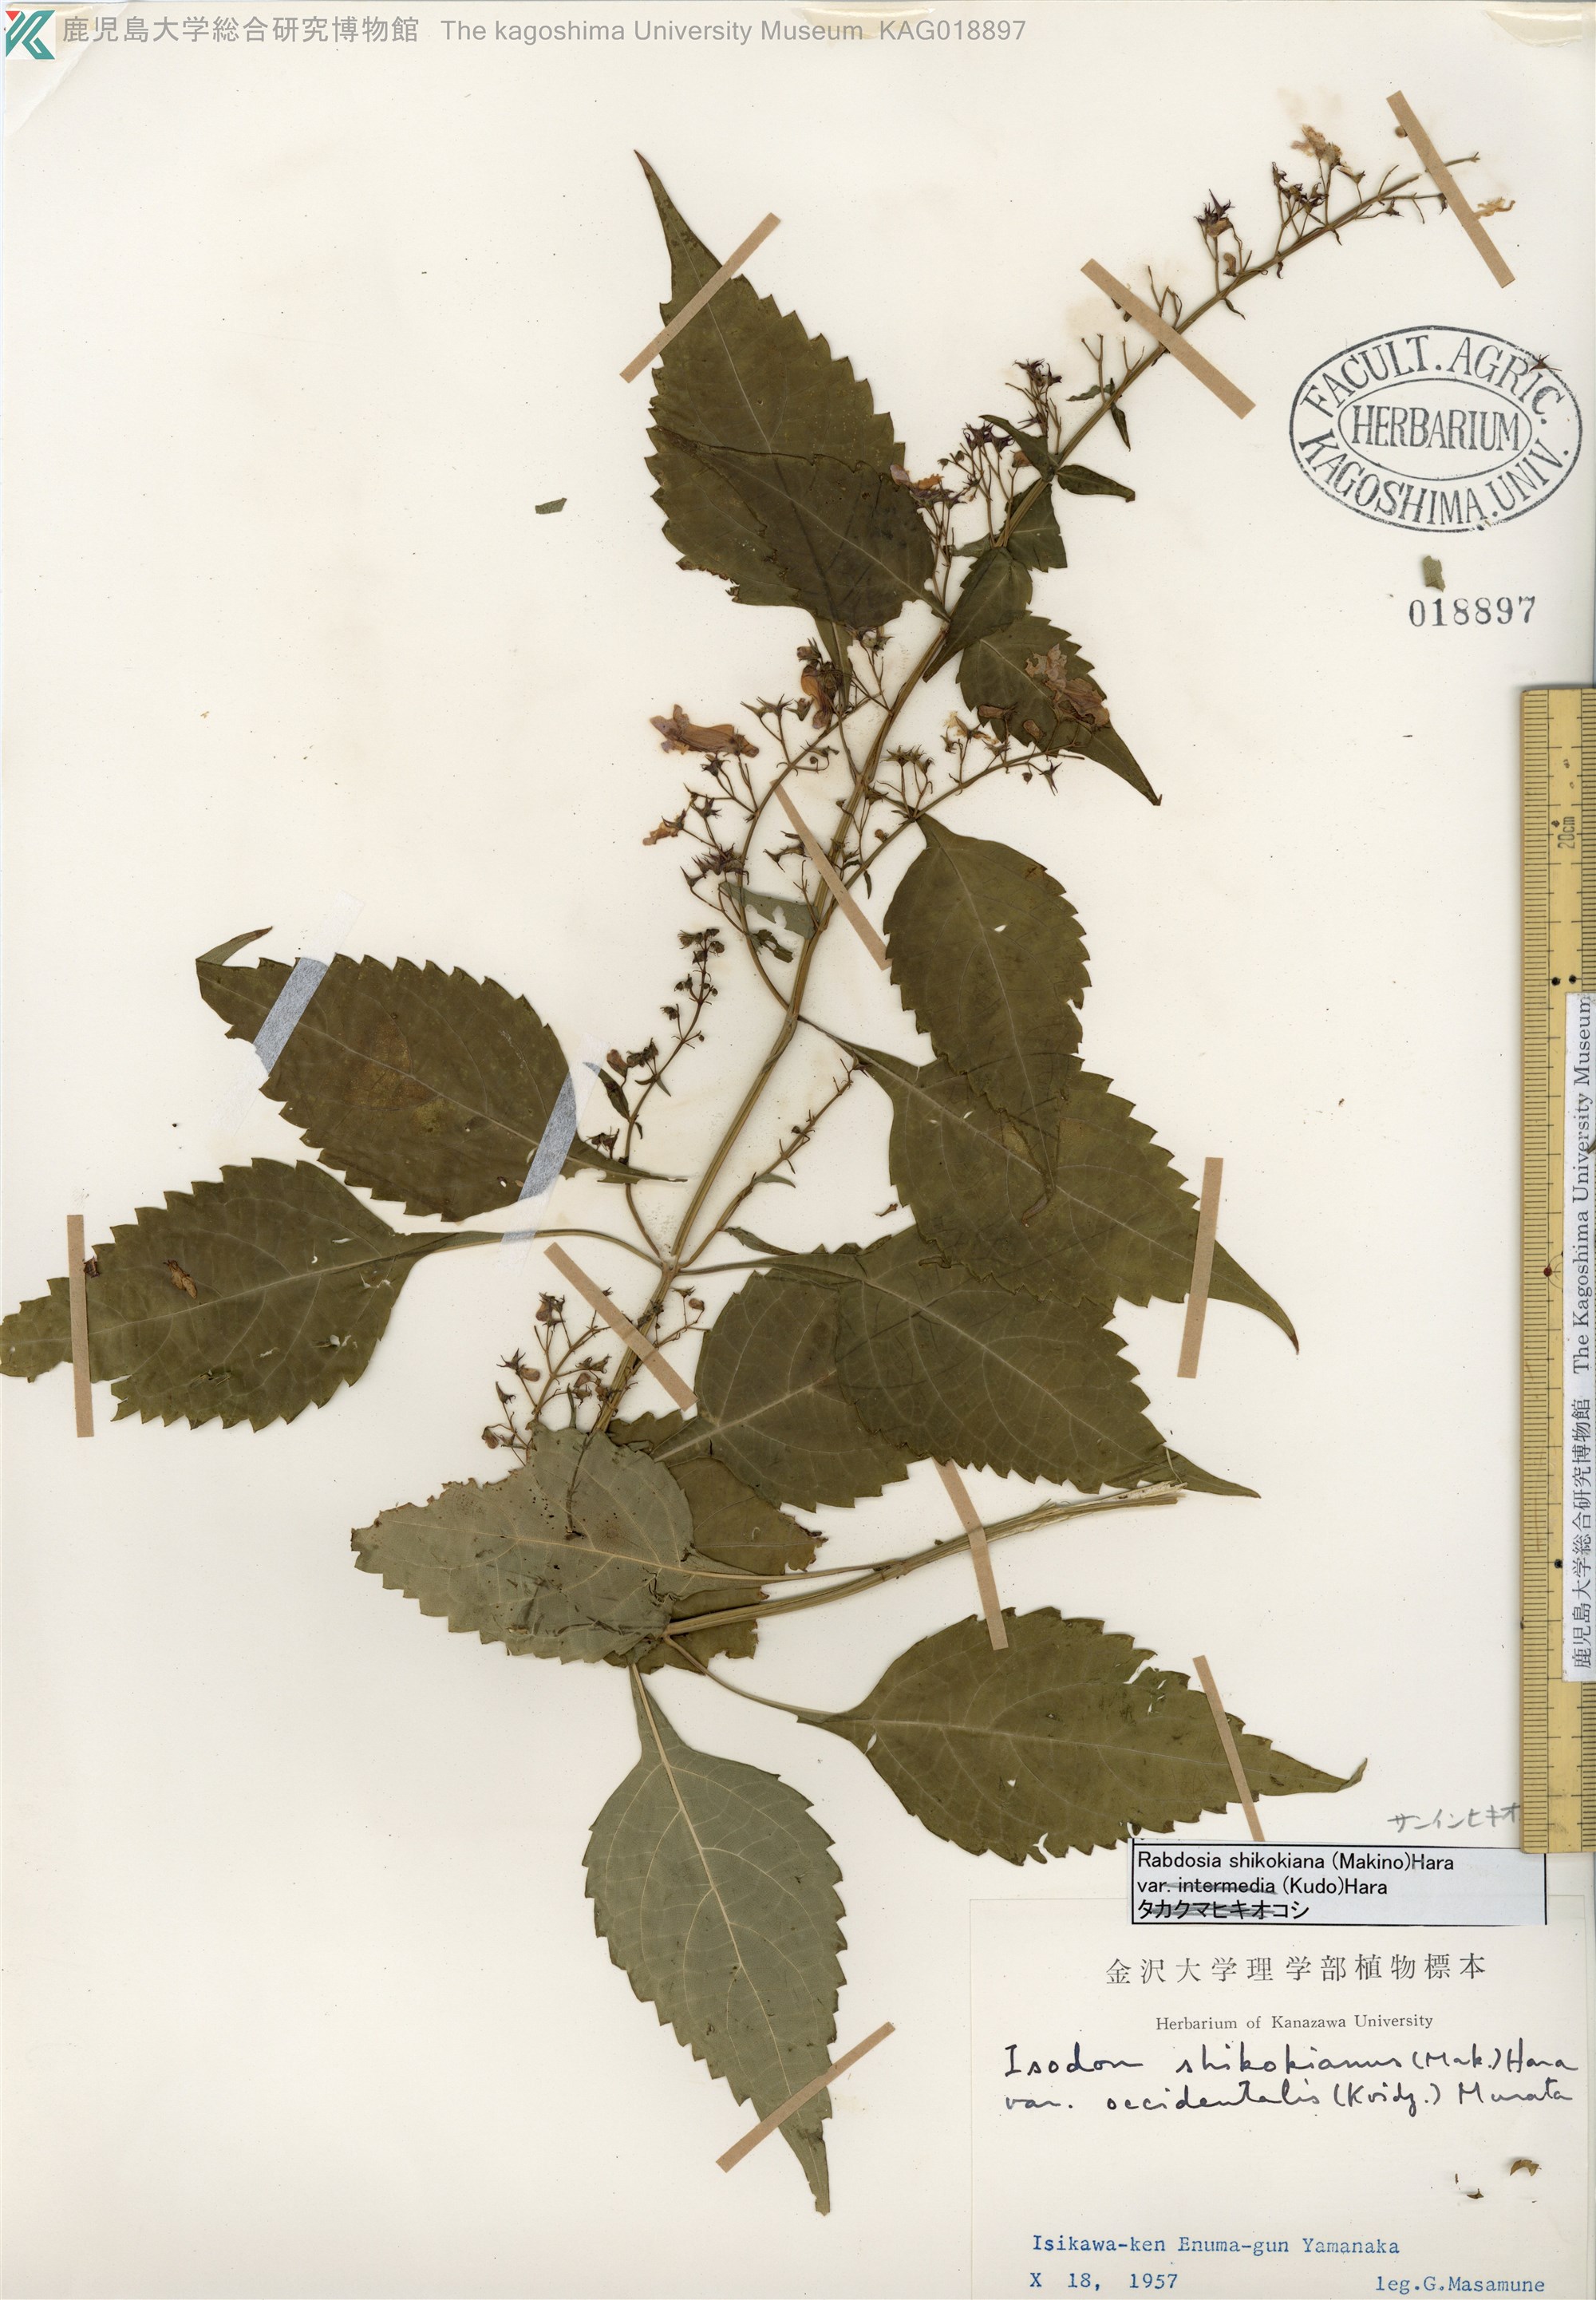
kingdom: Plantae
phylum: Tracheophyta
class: Magnoliopsida
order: Lamiales
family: Lamiaceae
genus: Isodon
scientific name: Isodon shikokianus
